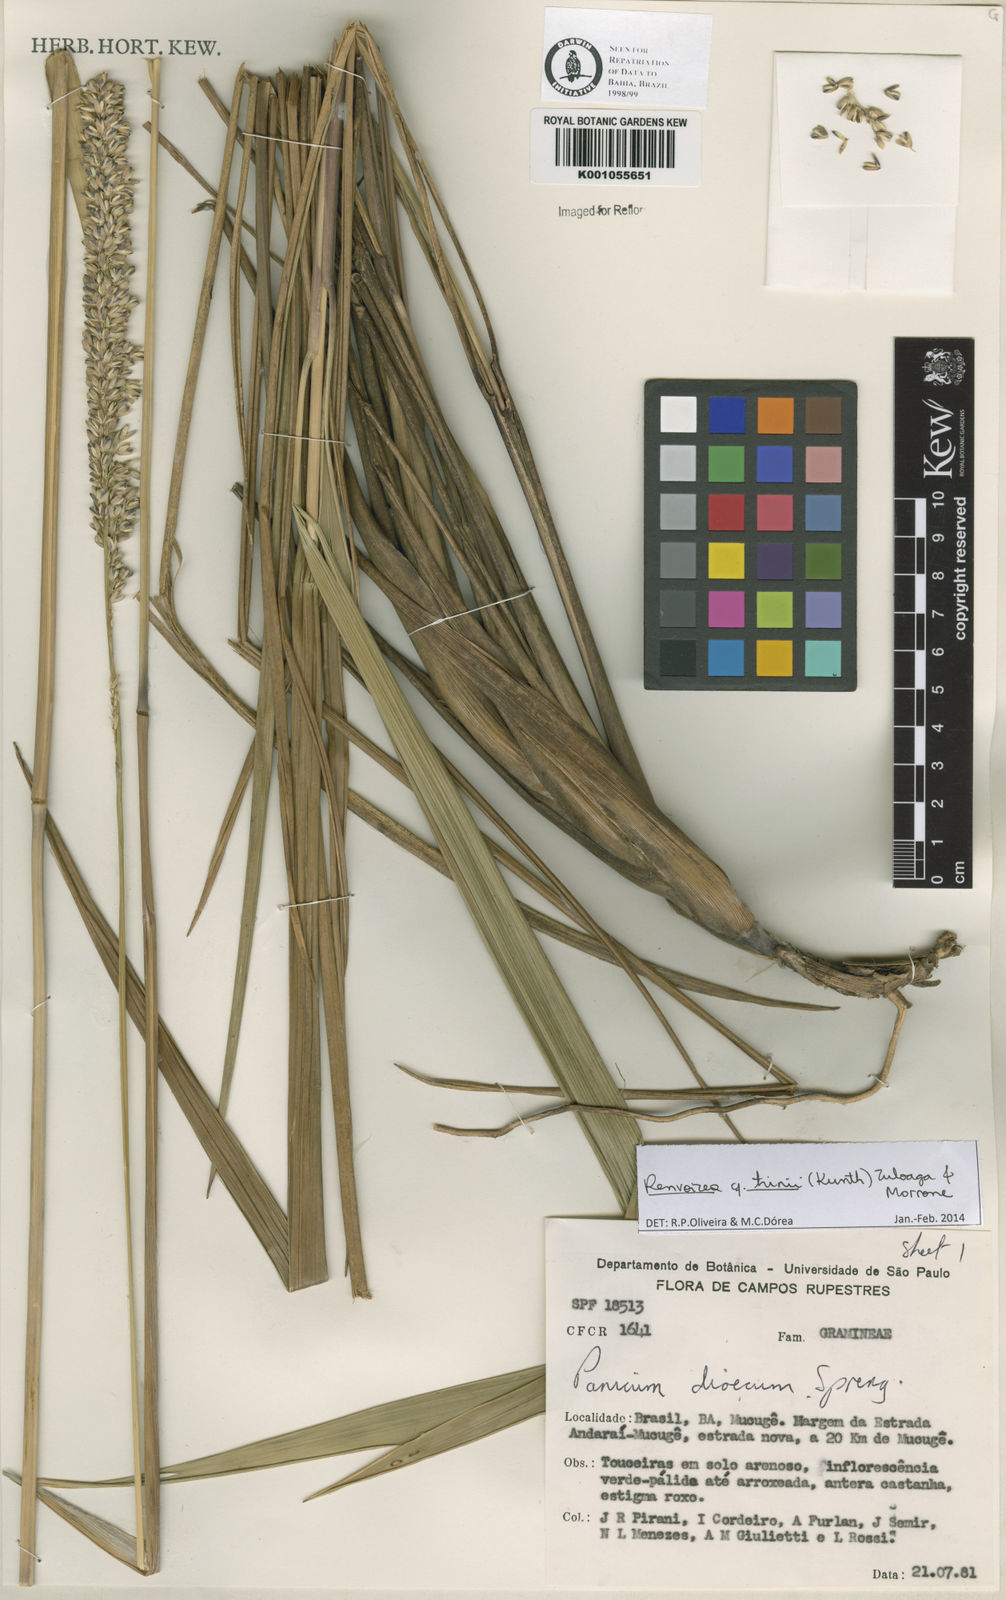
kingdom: Plantae
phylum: Tracheophyta
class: Liliopsida
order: Poales
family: Poaceae
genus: Renvoizea
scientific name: Renvoizea trinii
